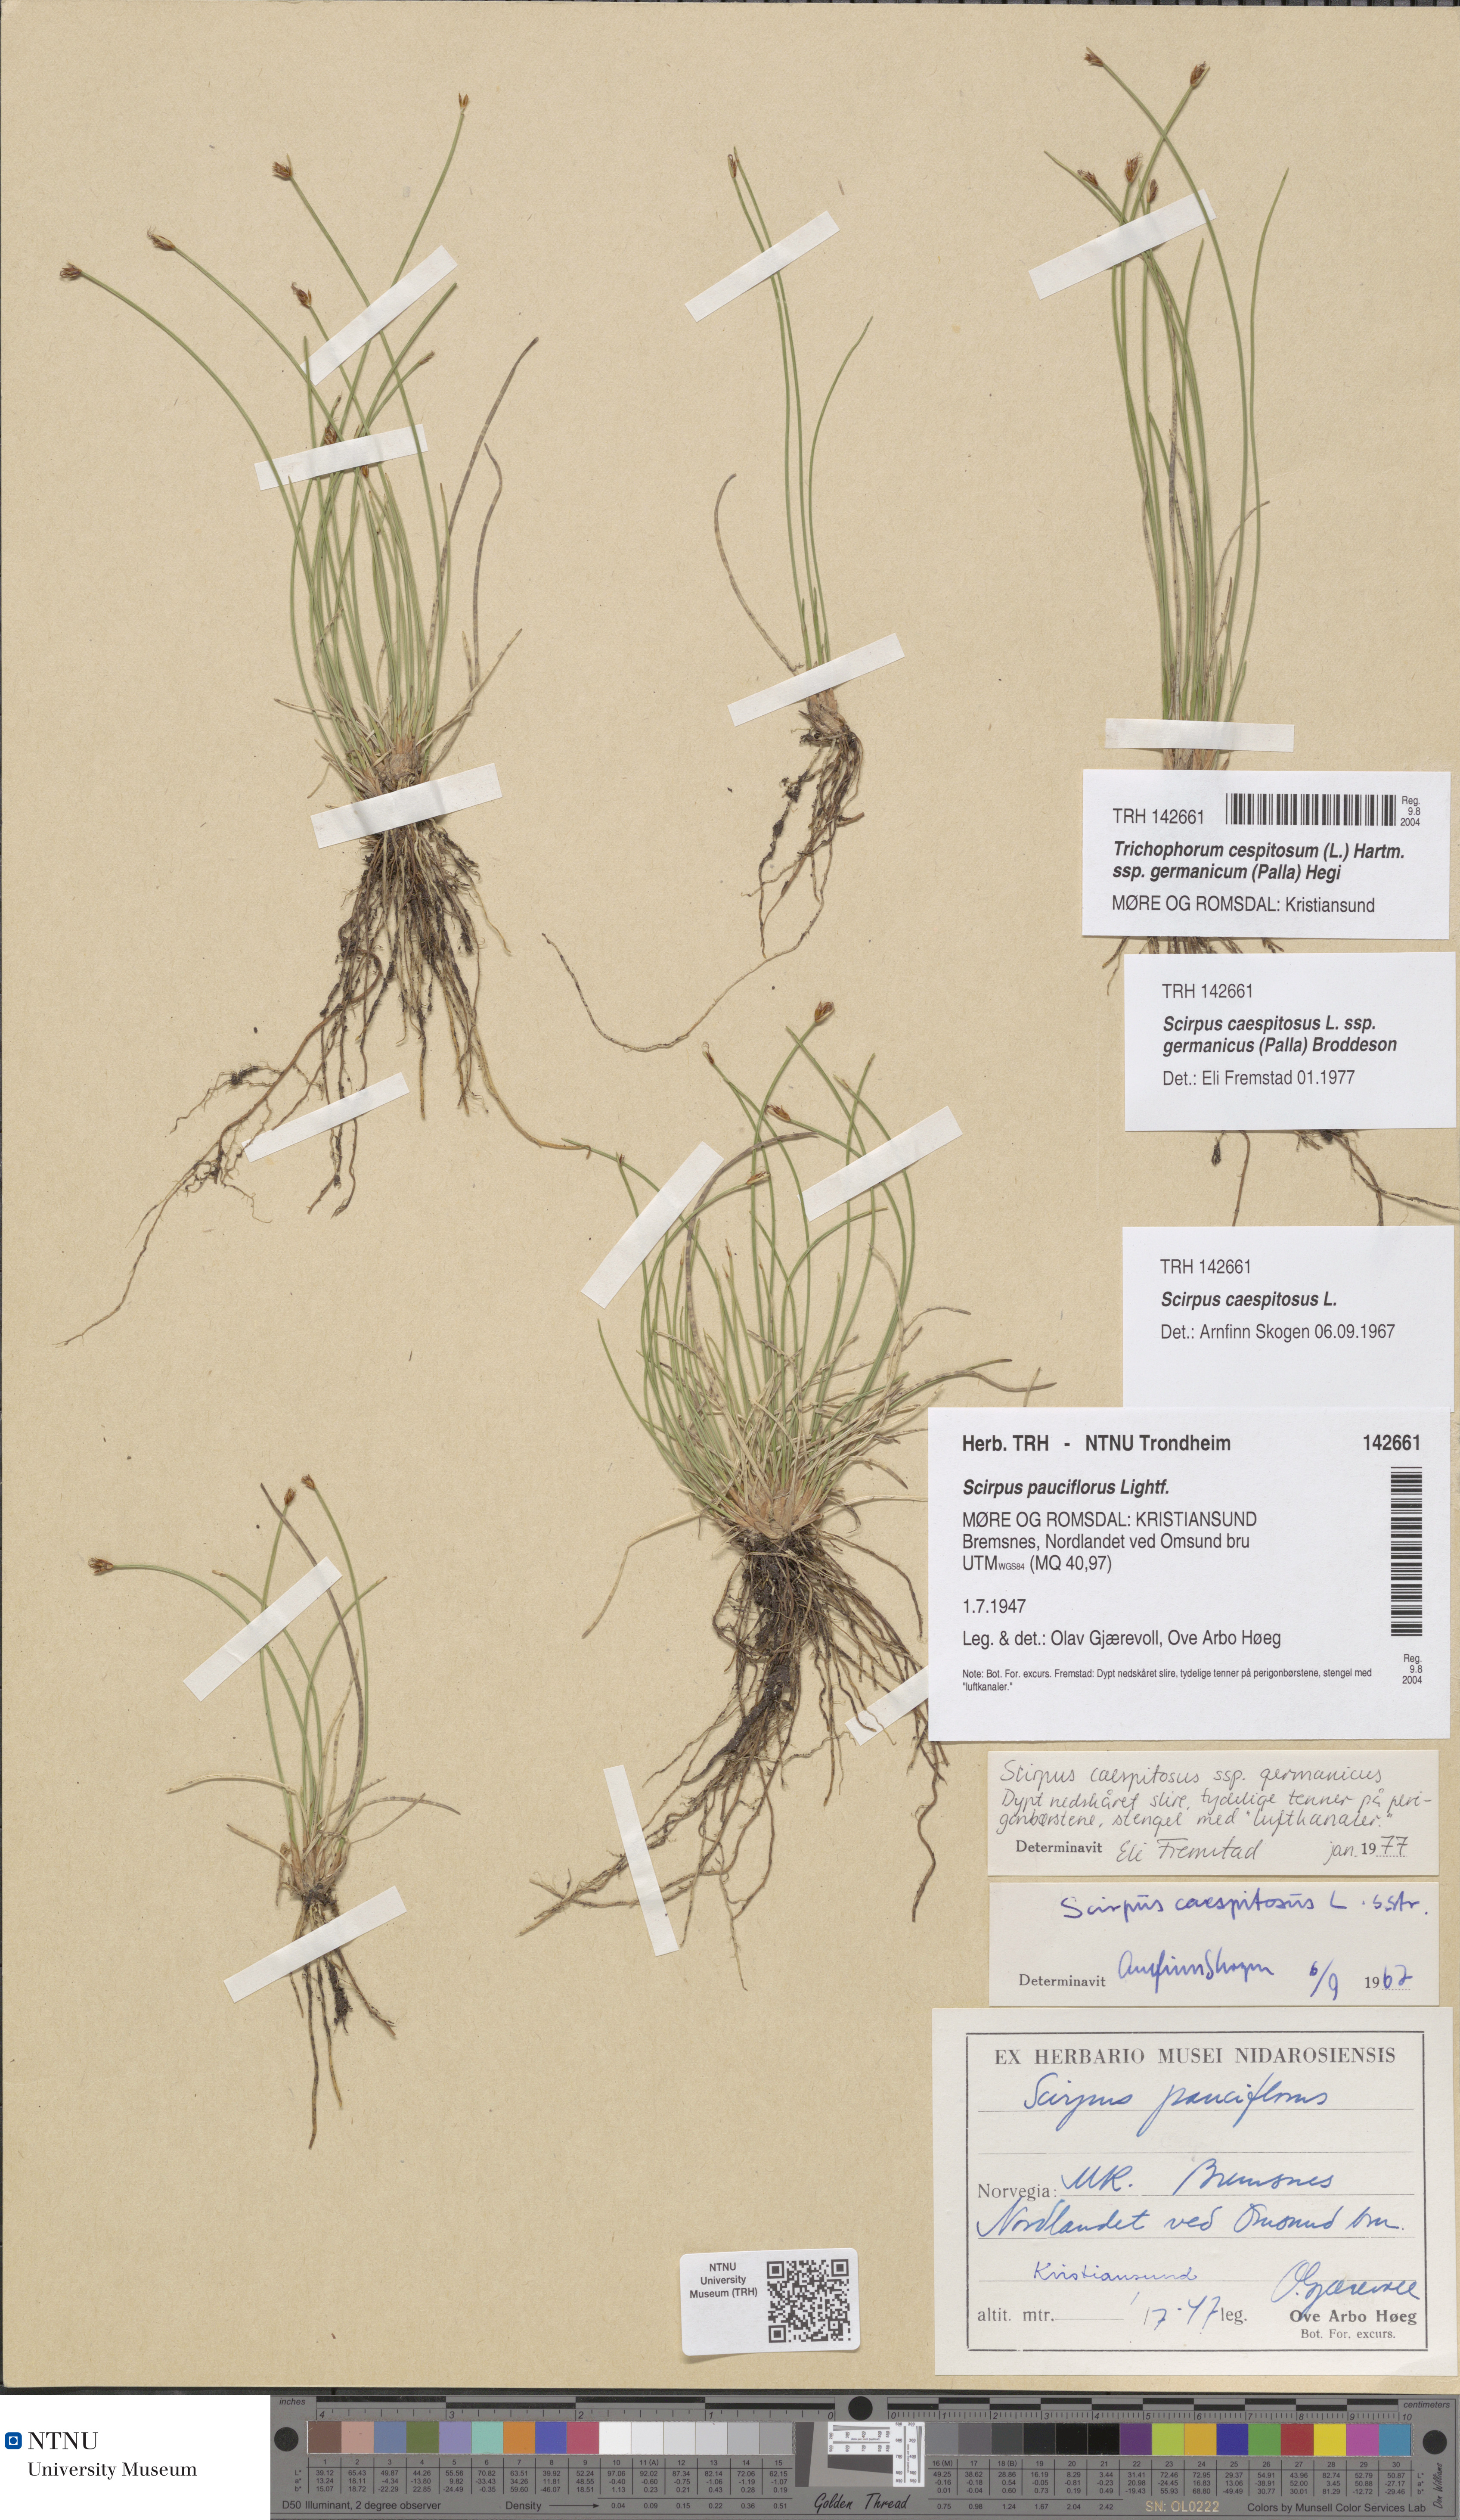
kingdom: Plantae
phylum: Tracheophyta
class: Liliopsida
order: Poales
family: Cyperaceae
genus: Trichophorum
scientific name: Trichophorum cespitosum
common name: Cespitose bulrush
